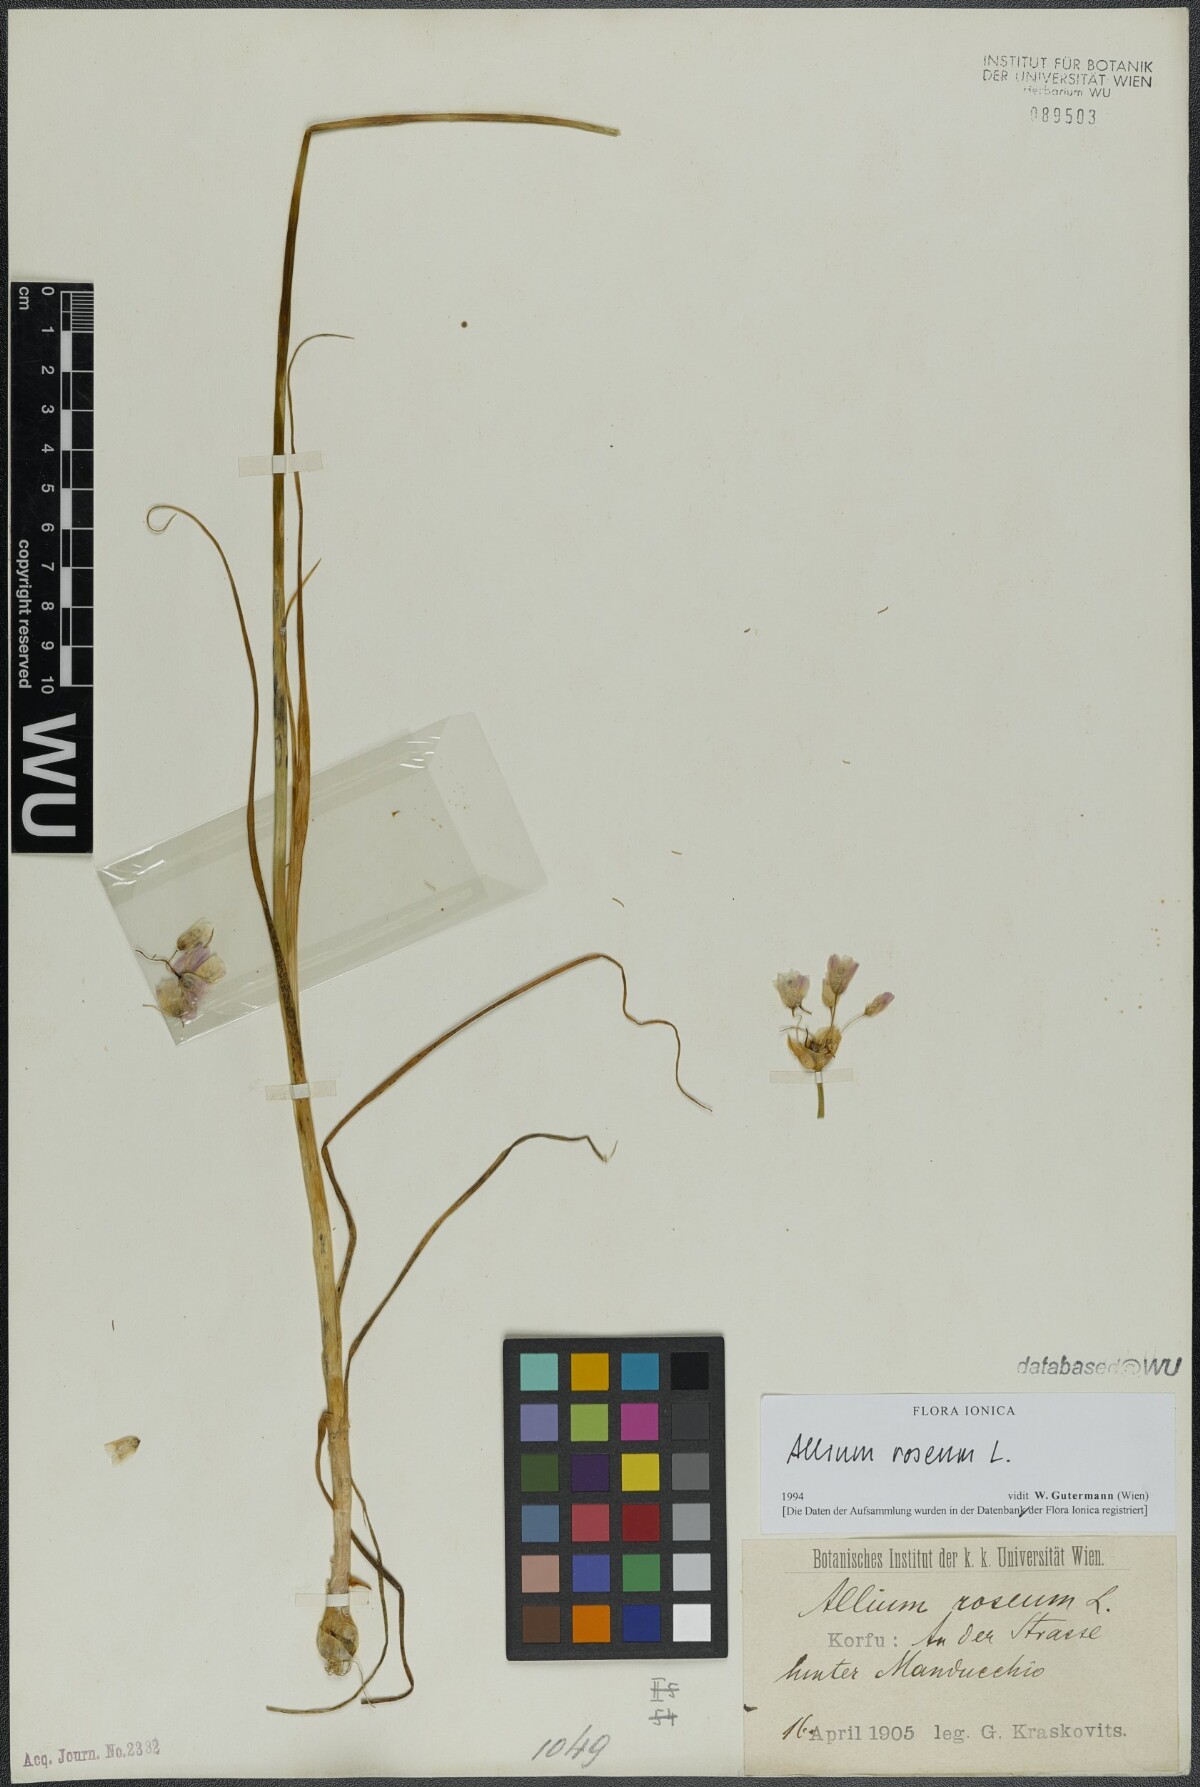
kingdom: Plantae
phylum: Tracheophyta
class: Liliopsida
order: Asparagales
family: Amaryllidaceae
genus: Allium
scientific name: Allium roseum
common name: Rosy garlic
